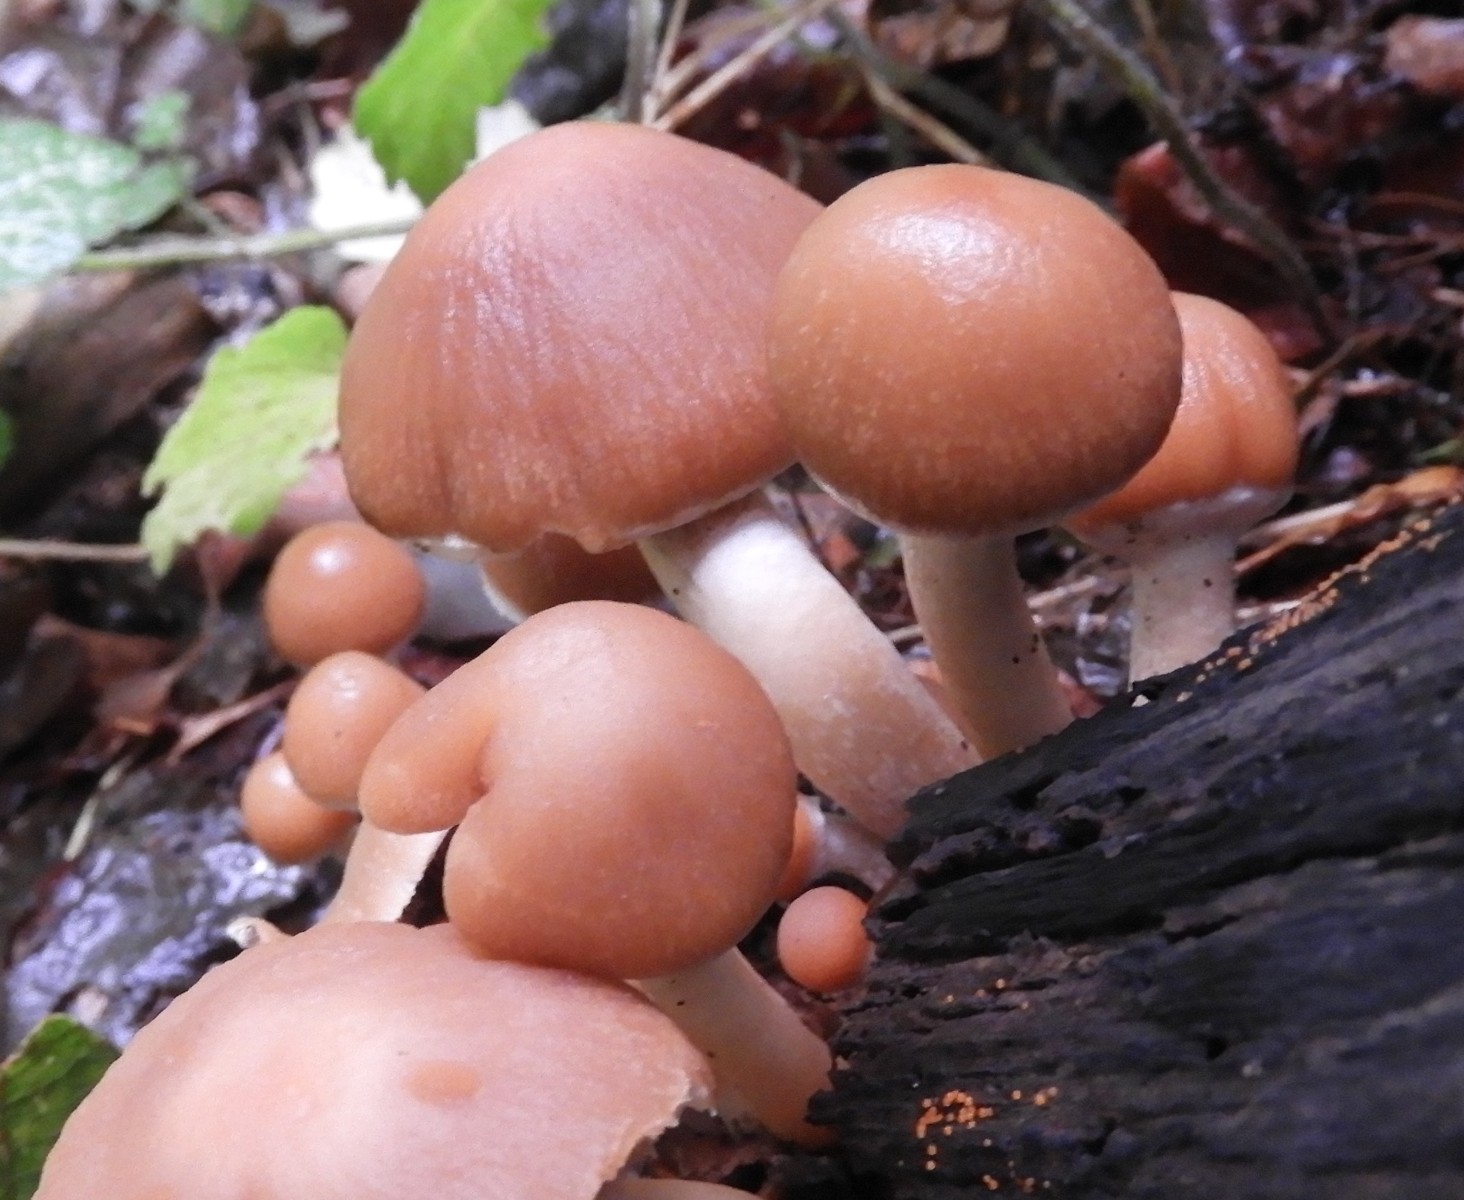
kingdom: Fungi
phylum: Basidiomycota
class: Agaricomycetes
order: Agaricales
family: Psathyrellaceae
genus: Psathyrella
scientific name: Psathyrella piluliformis
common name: lysstokket mørkhat
